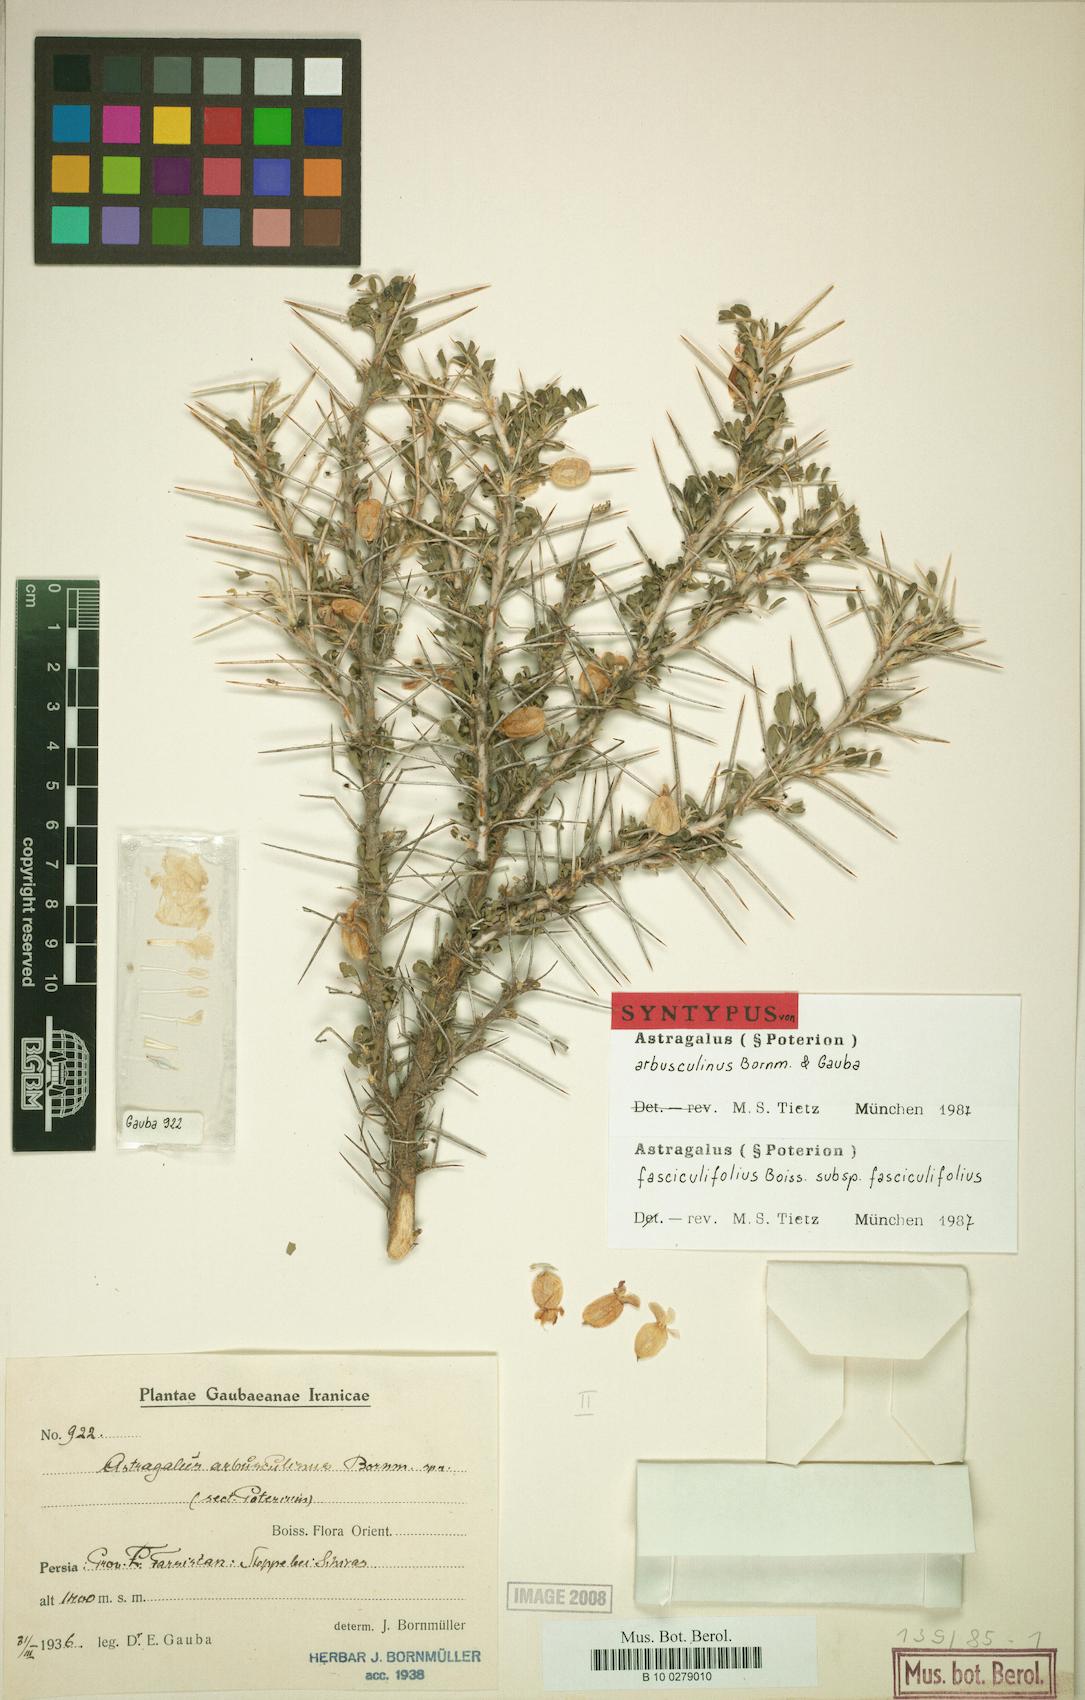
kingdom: Plantae
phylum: Tracheophyta
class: Magnoliopsida
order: Fabales
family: Fabaceae
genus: Astragalus
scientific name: Astragalus fasciculifolius
